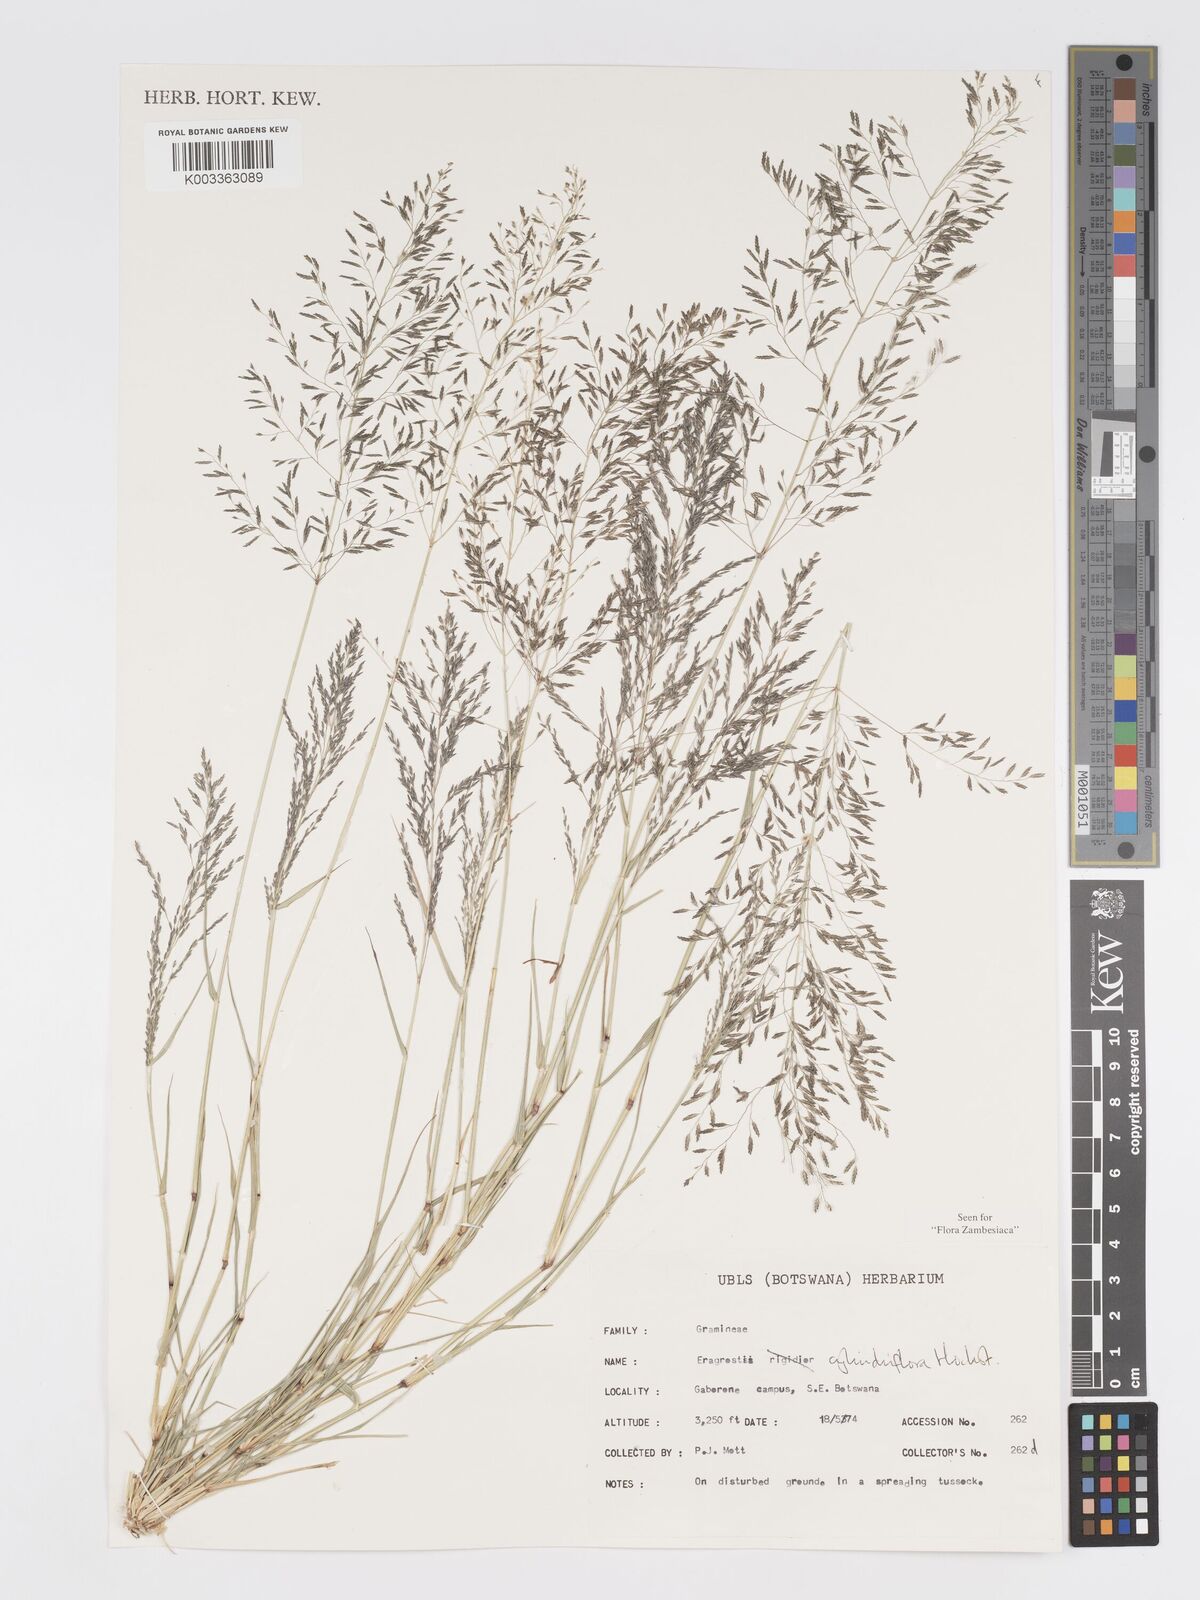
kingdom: Plantae
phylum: Tracheophyta
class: Liliopsida
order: Poales
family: Poaceae
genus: Eragrostis
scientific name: Eragrostis cylindriflora
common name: Cylinderflower lovegrass
